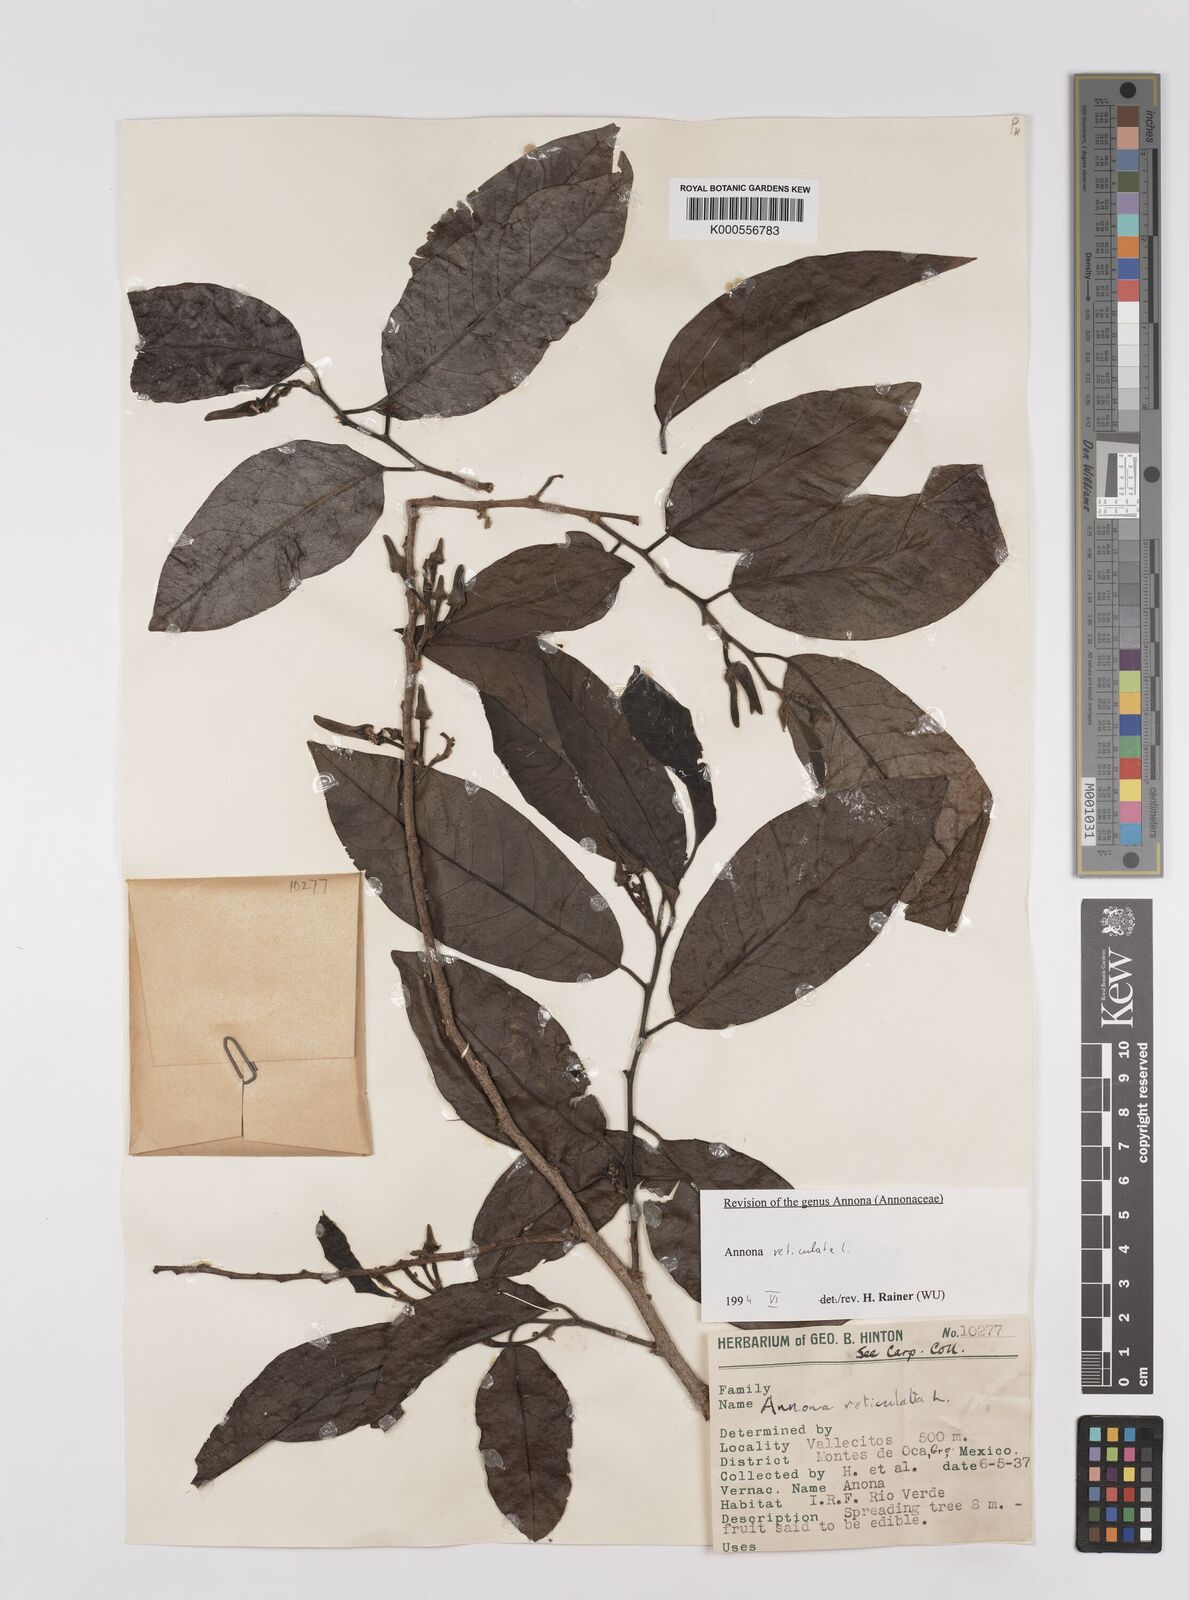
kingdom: Plantae
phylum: Tracheophyta
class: Magnoliopsida
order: Magnoliales
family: Annonaceae
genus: Annona
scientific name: Annona reticulata
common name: Custard apple
